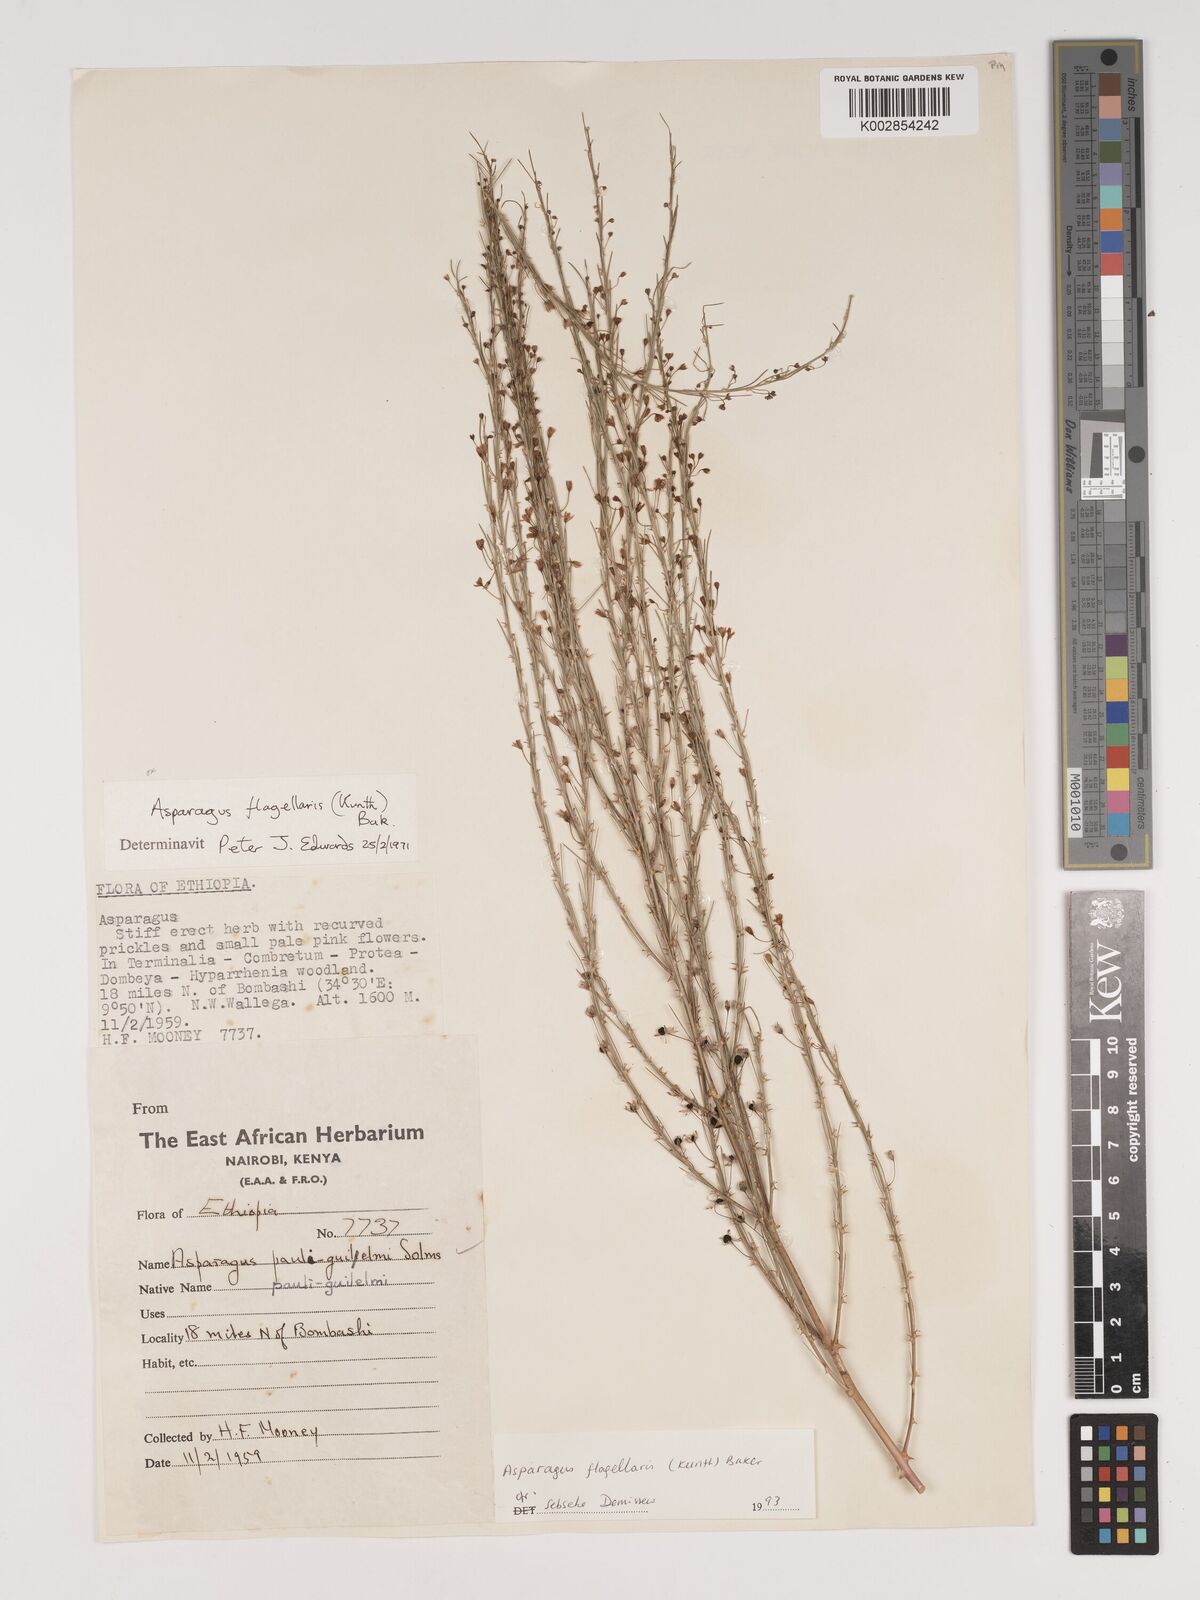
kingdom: Plantae
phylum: Tracheophyta
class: Liliopsida
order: Asparagales
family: Asparagaceae
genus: Asparagus
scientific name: Asparagus flagellaris
